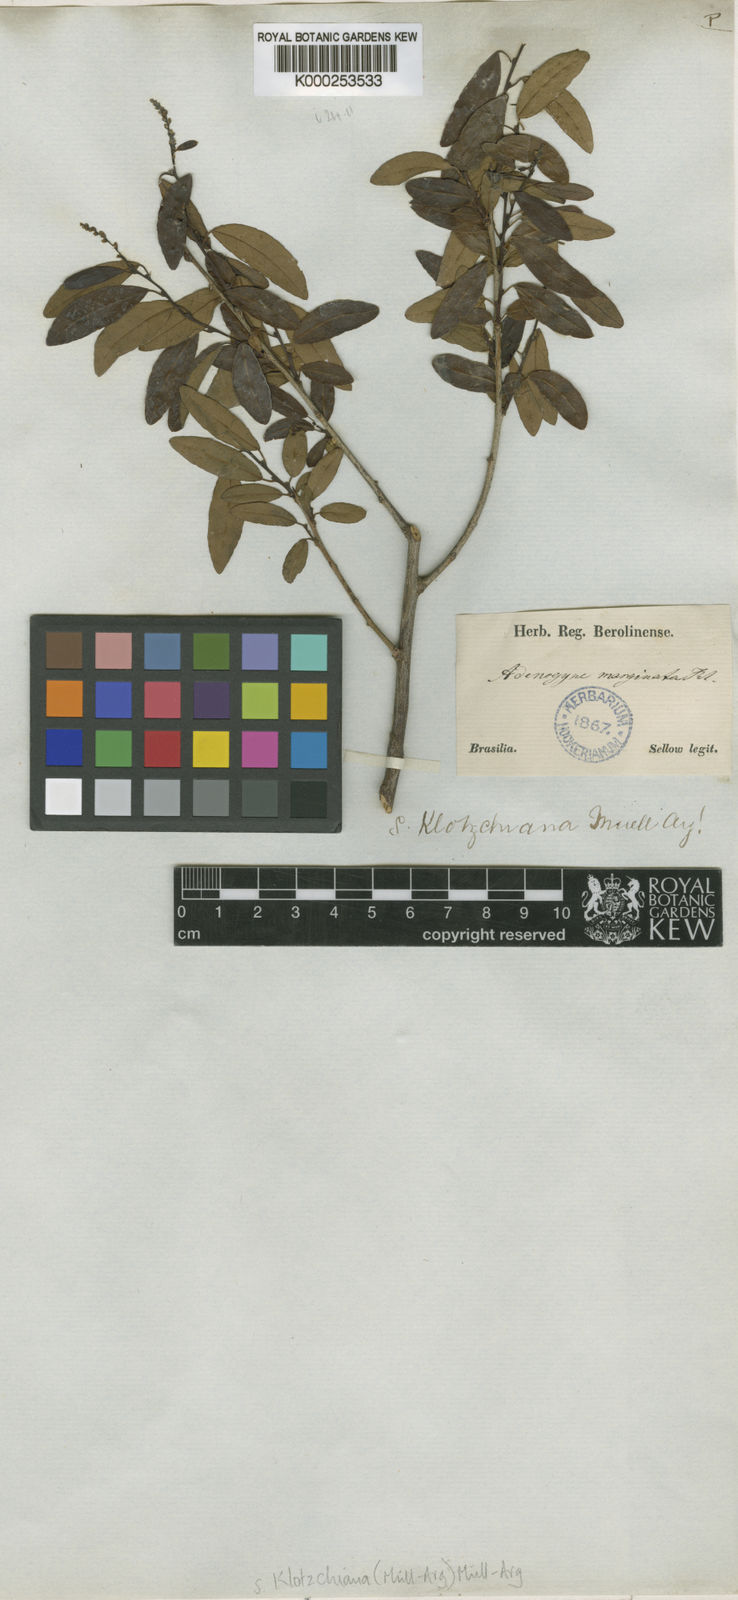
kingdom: Plantae
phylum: Tracheophyta
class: Magnoliopsida
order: Malpighiales
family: Euphorbiaceae
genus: Sebastiania
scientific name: Sebastiania
